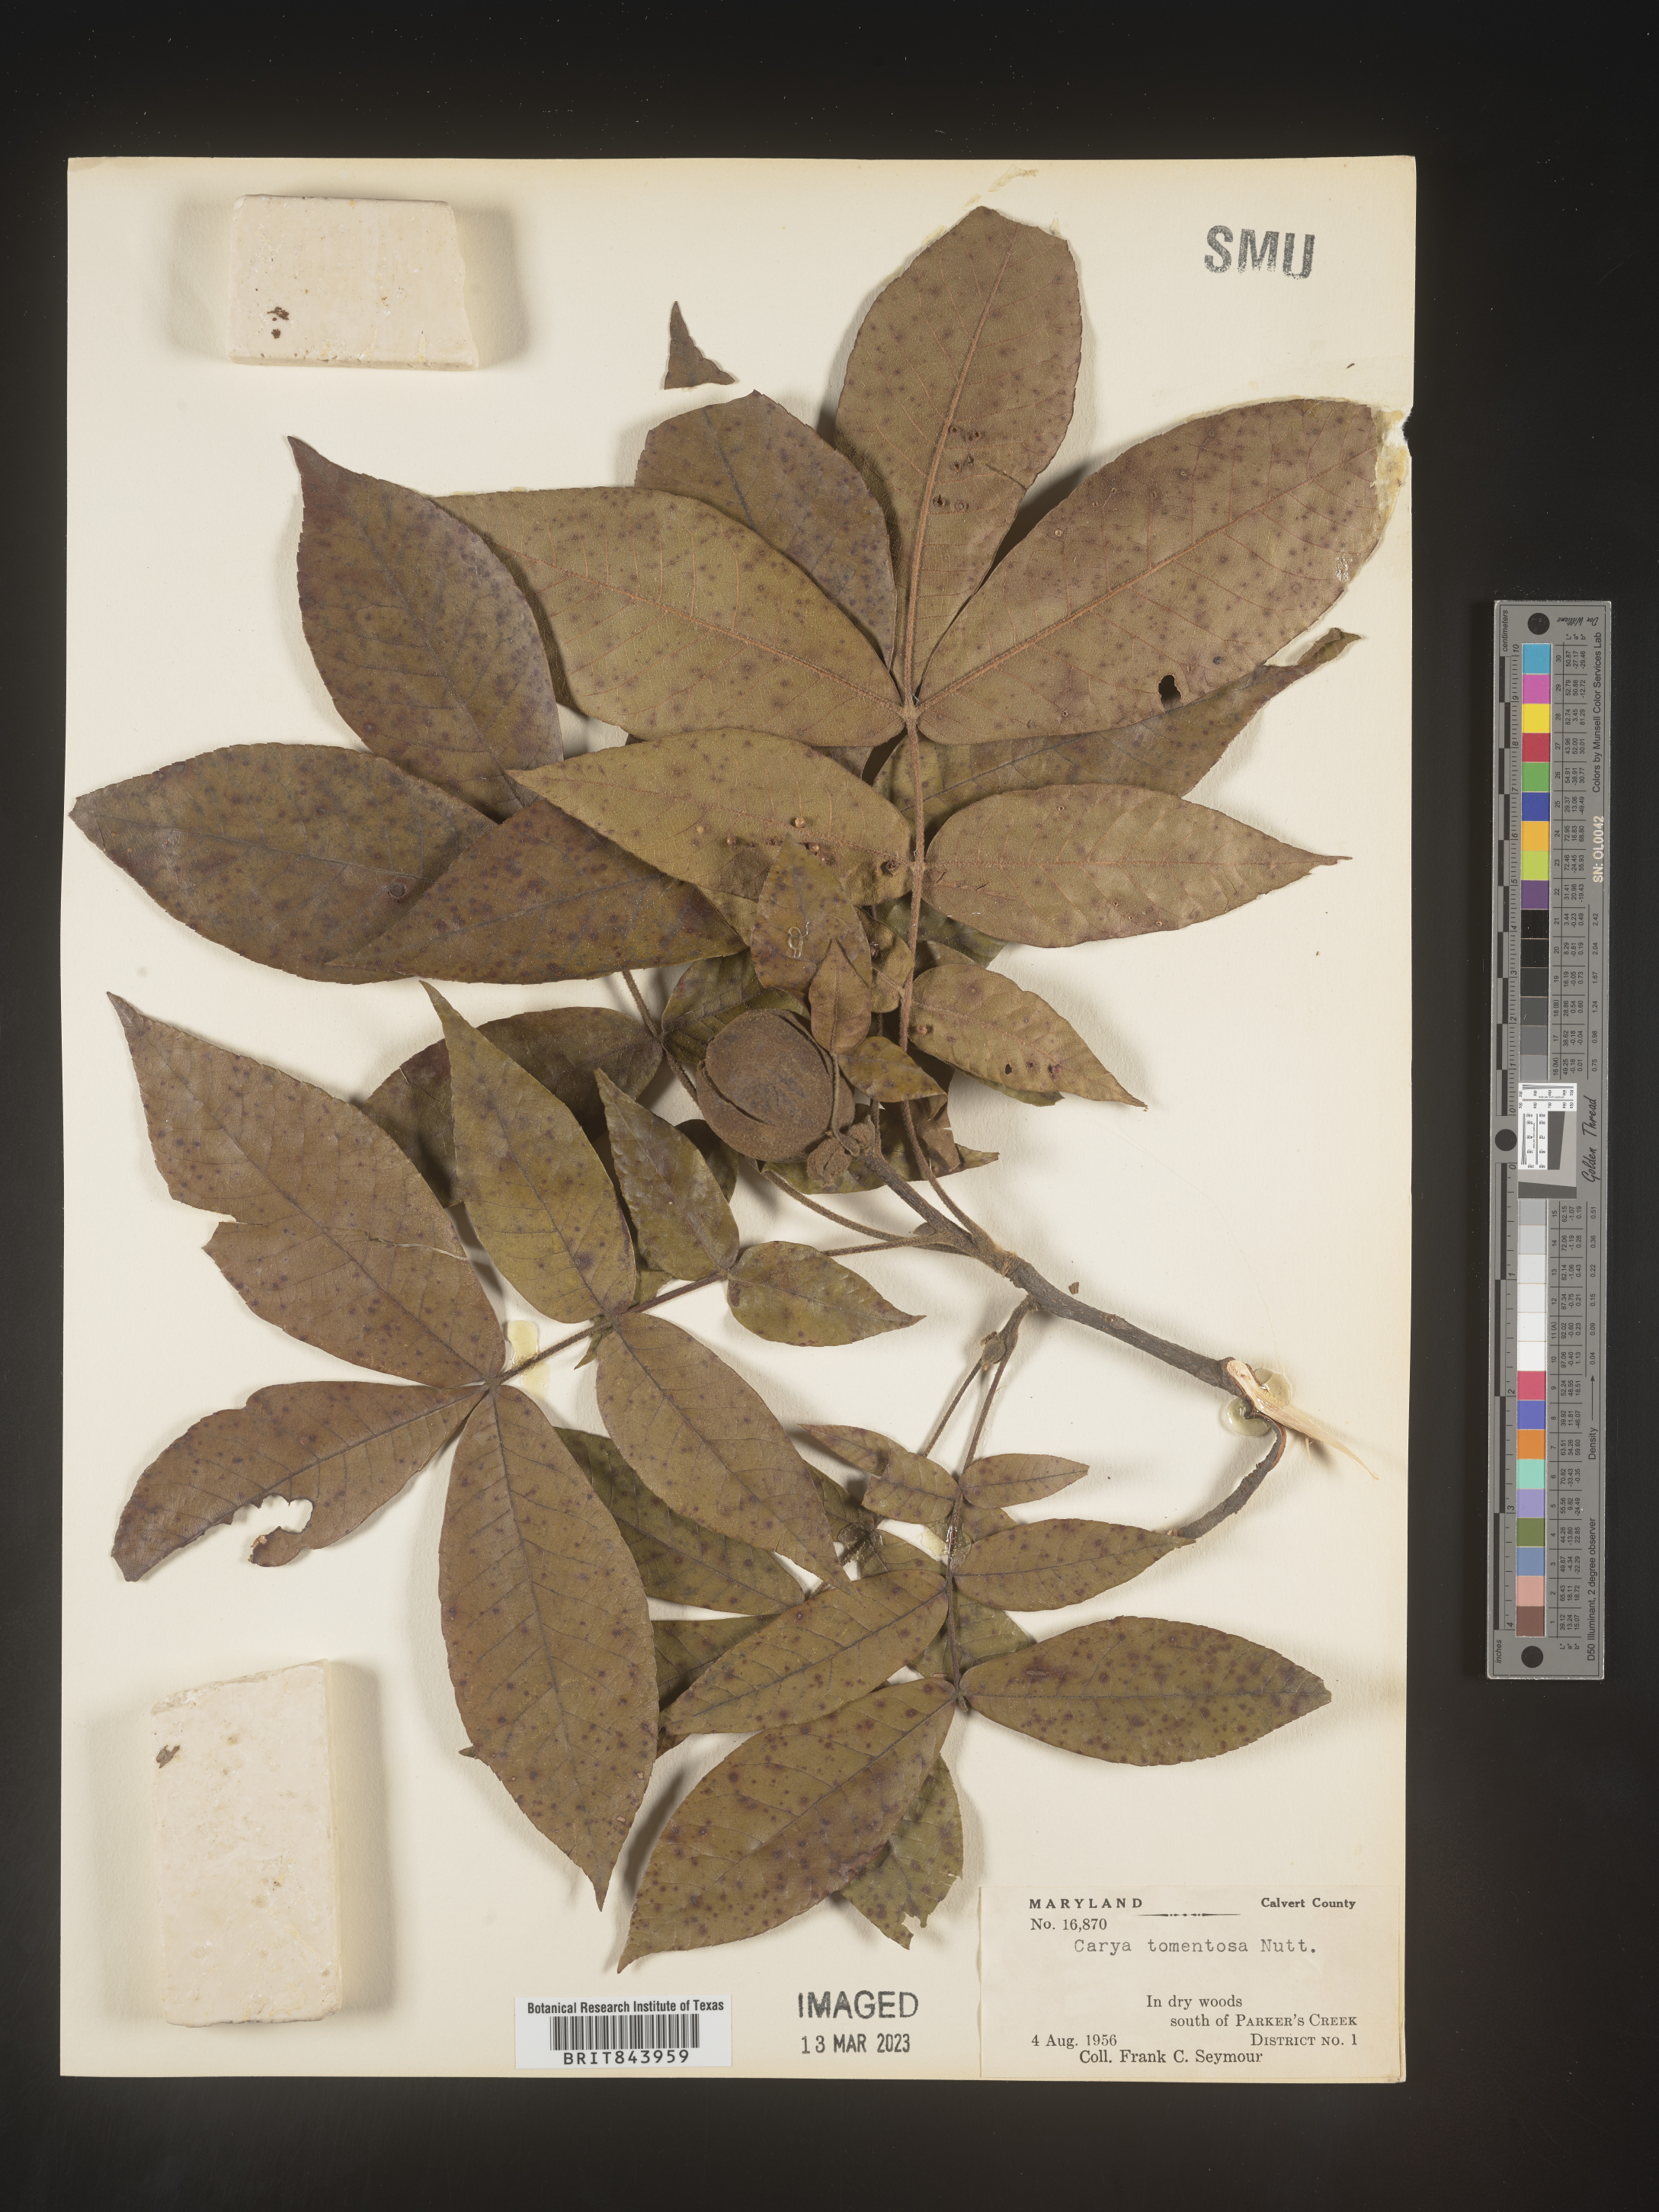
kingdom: Plantae
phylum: Tracheophyta
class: Magnoliopsida
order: Fagales
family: Juglandaceae
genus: Carya
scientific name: Carya alba
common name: Mockernut hickory
